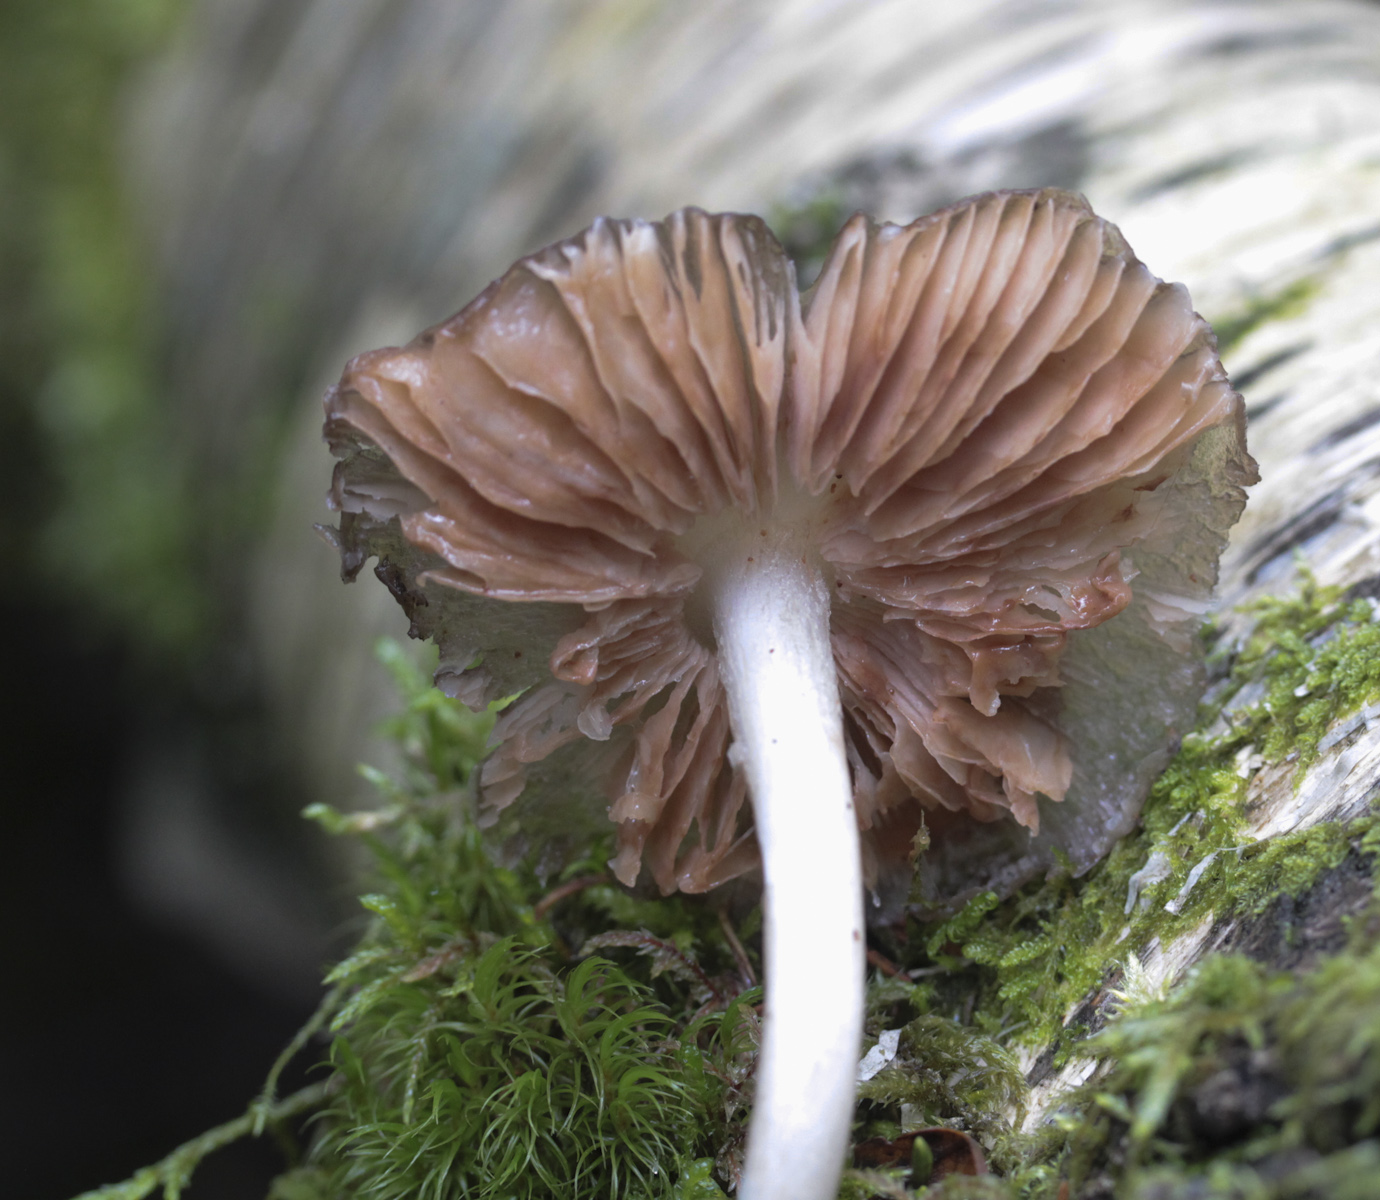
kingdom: Fungi
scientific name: Fungi
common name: Fungi
